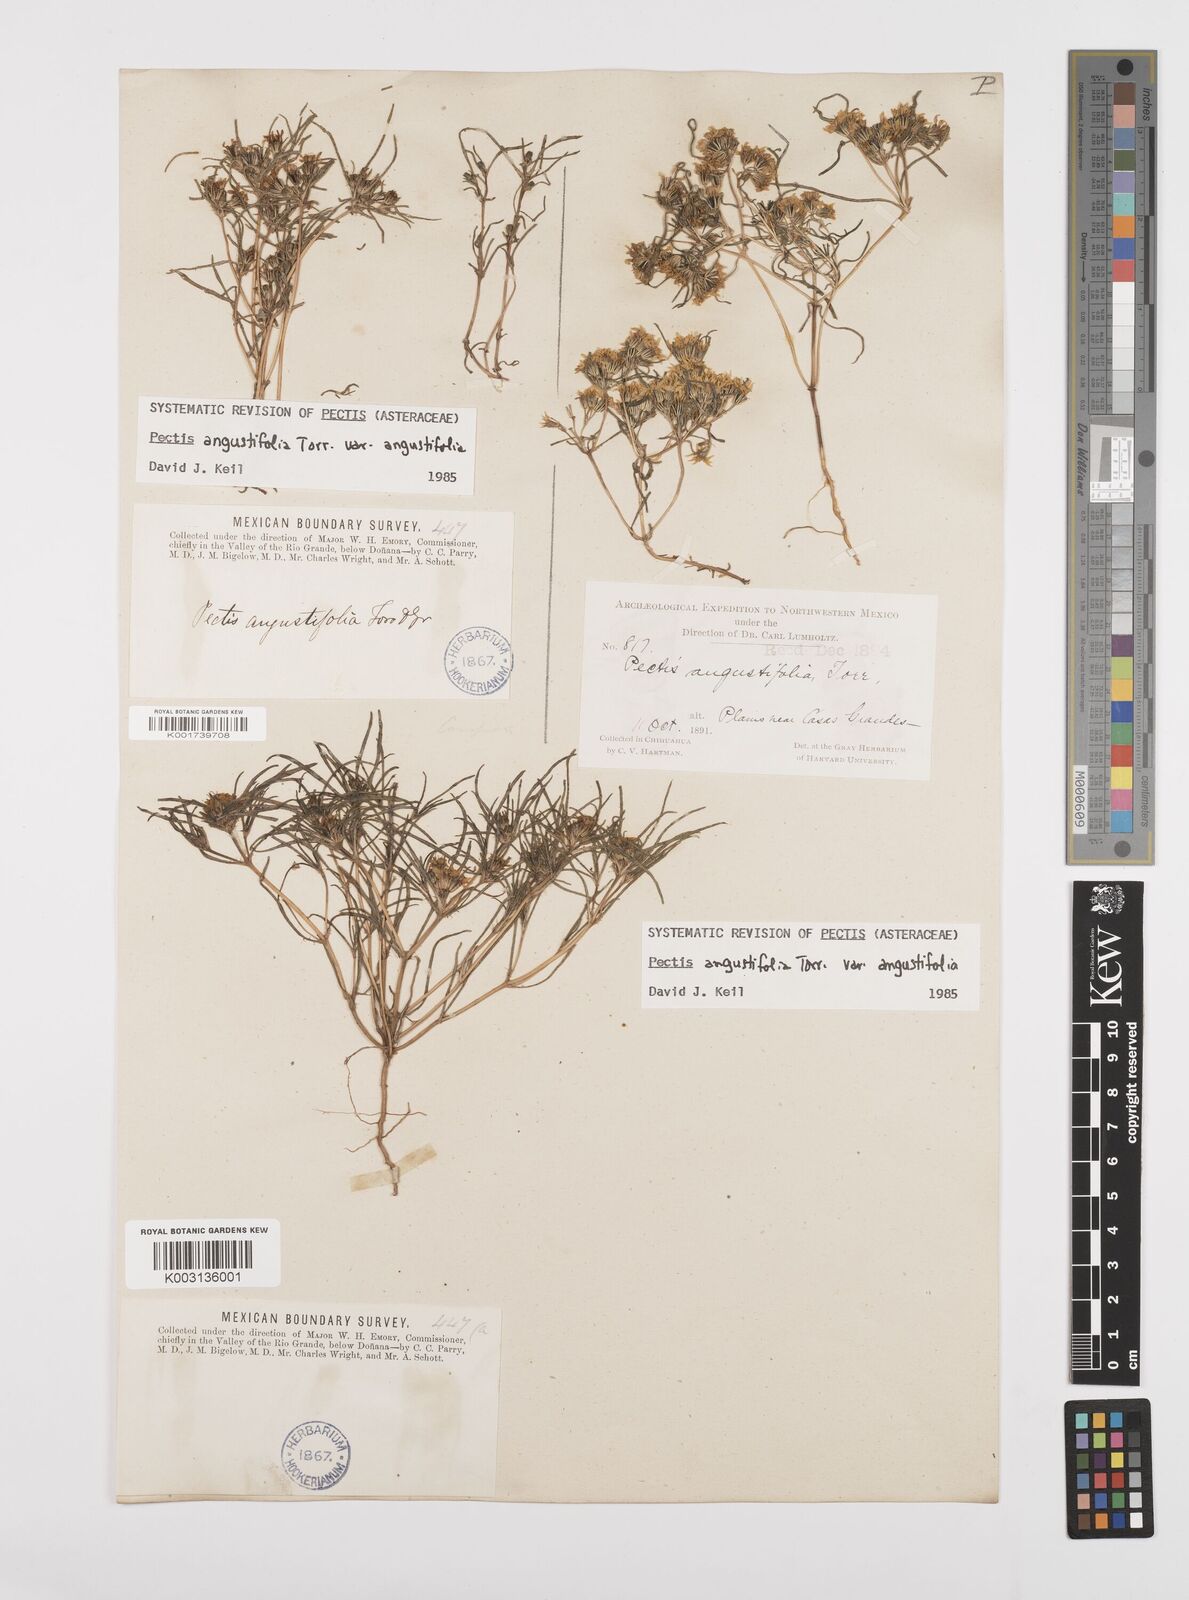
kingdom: Plantae
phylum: Tracheophyta
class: Magnoliopsida
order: Asterales
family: Asteraceae
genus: Pectis
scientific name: Pectis angustifolia
